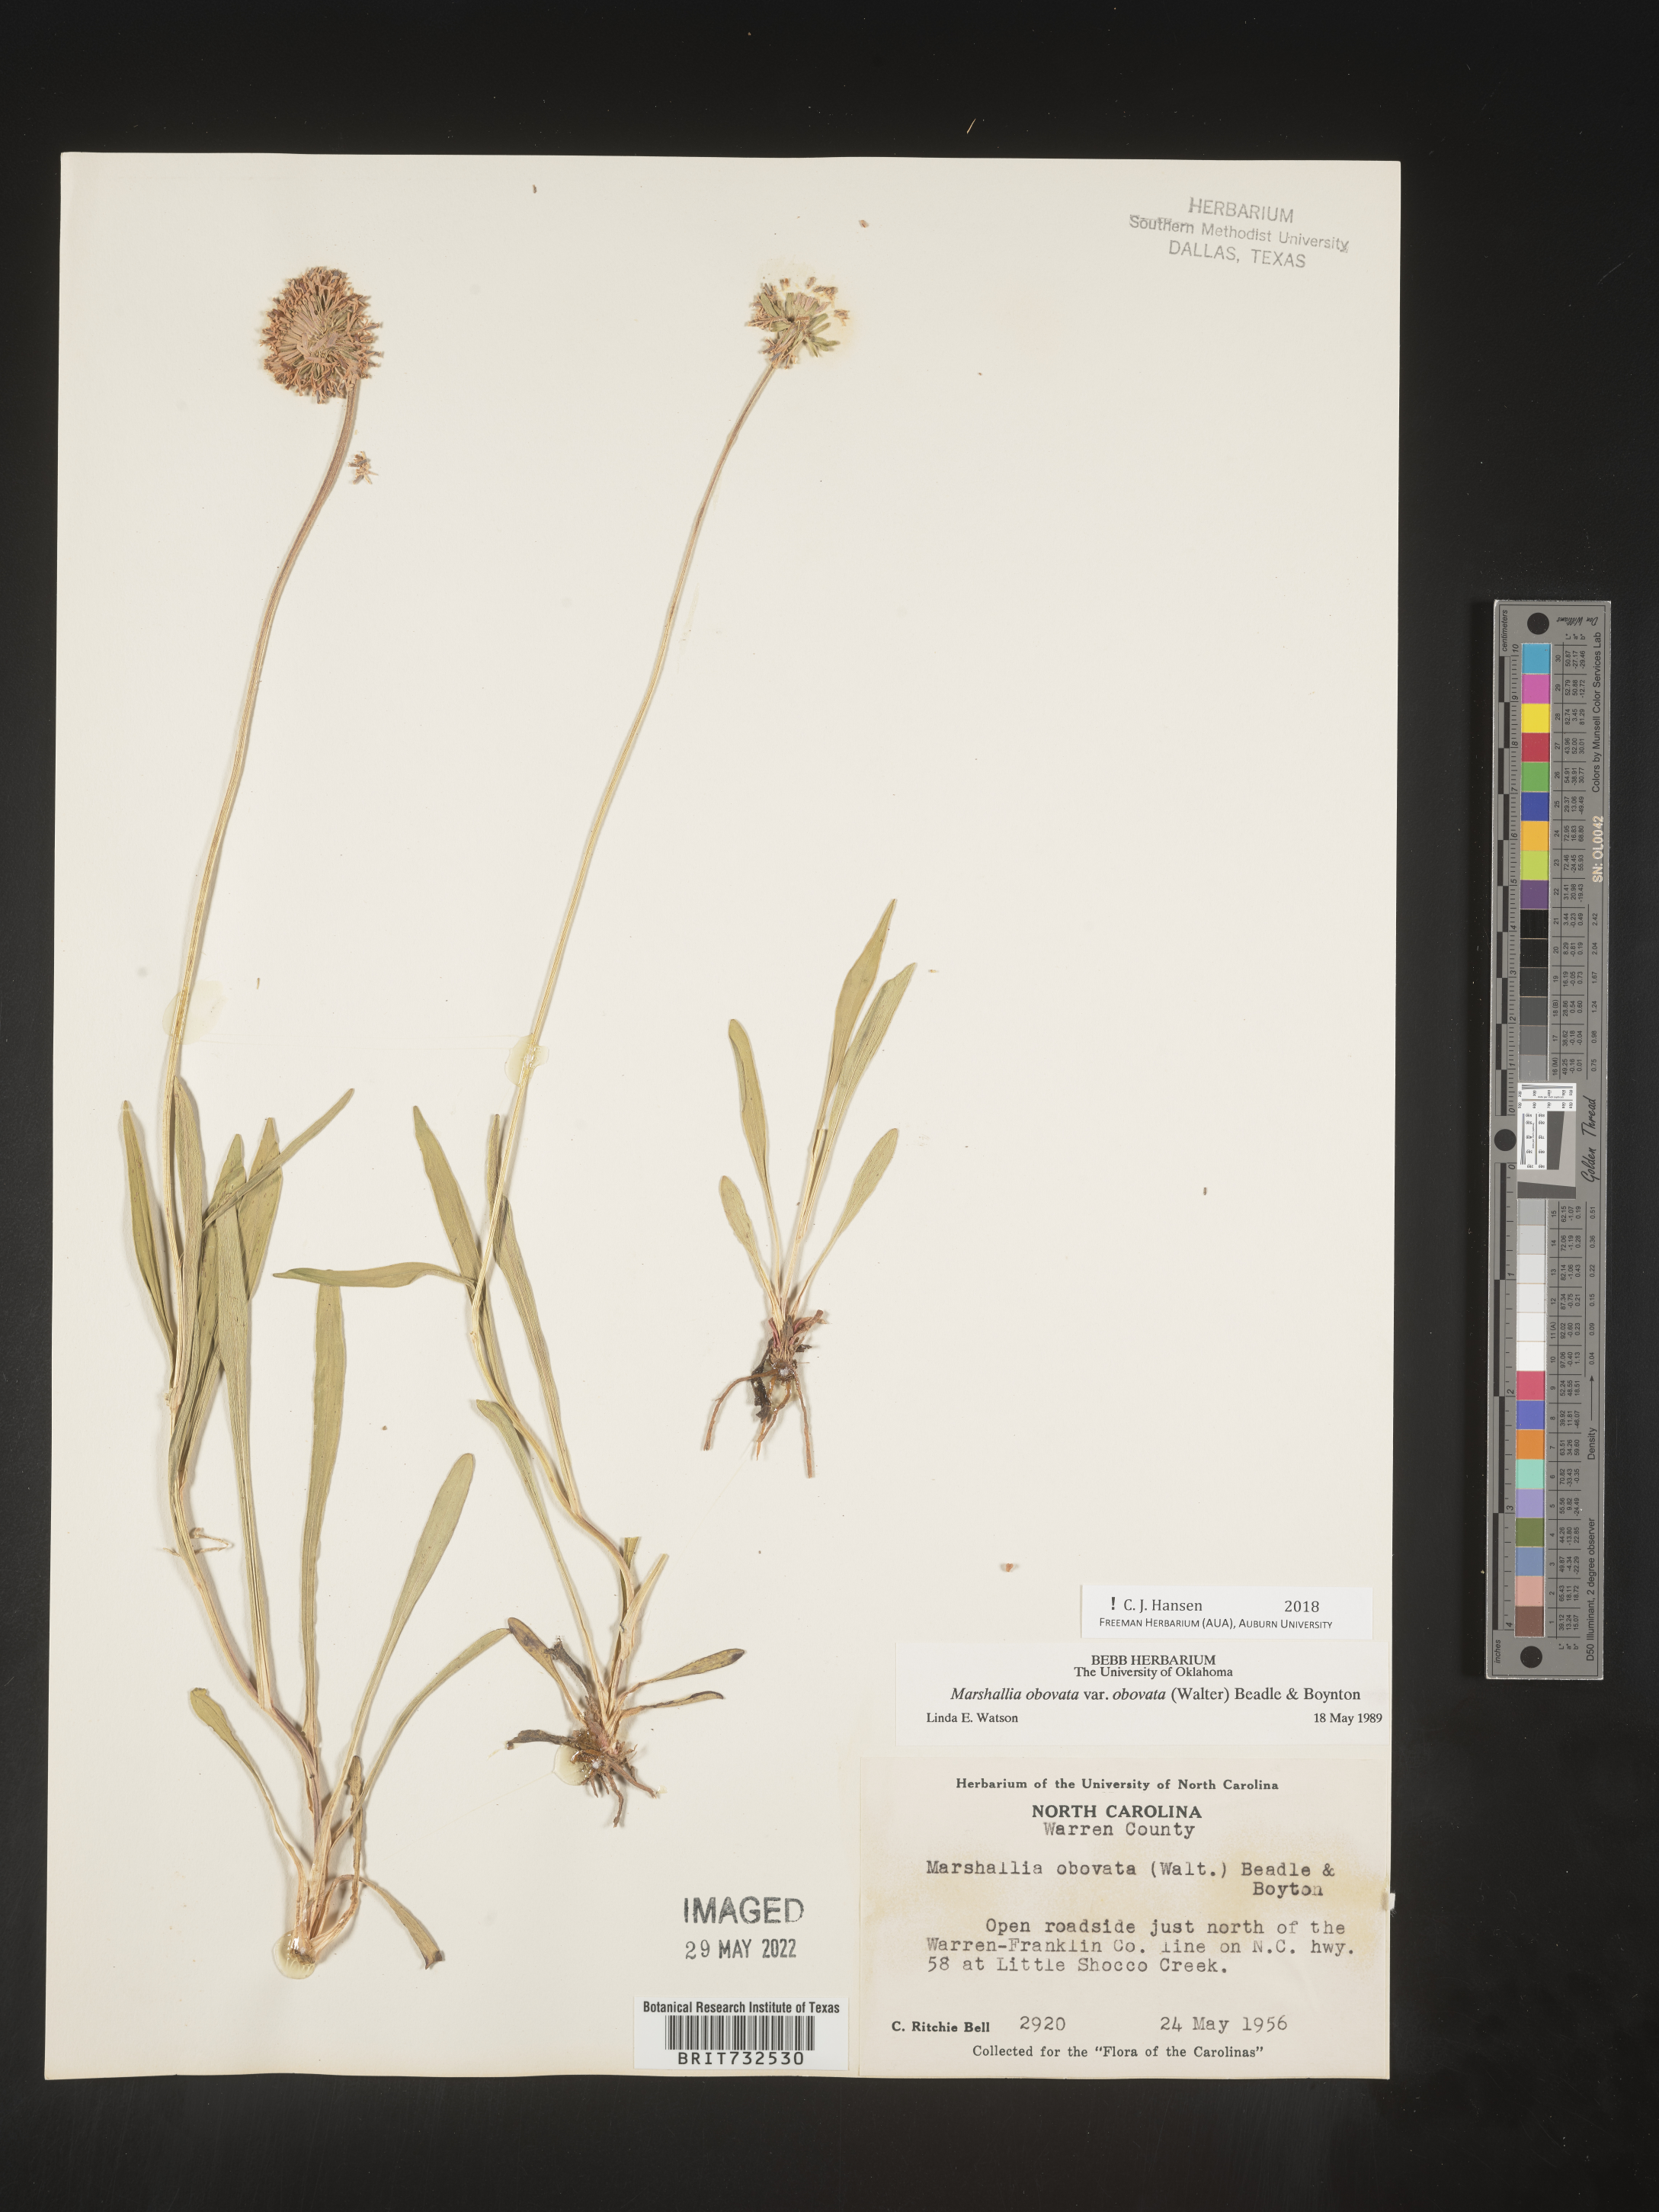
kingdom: Plantae
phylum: Tracheophyta
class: Magnoliopsida
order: Asterales
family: Asteraceae
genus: Marshallia
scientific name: Marshallia obovata
